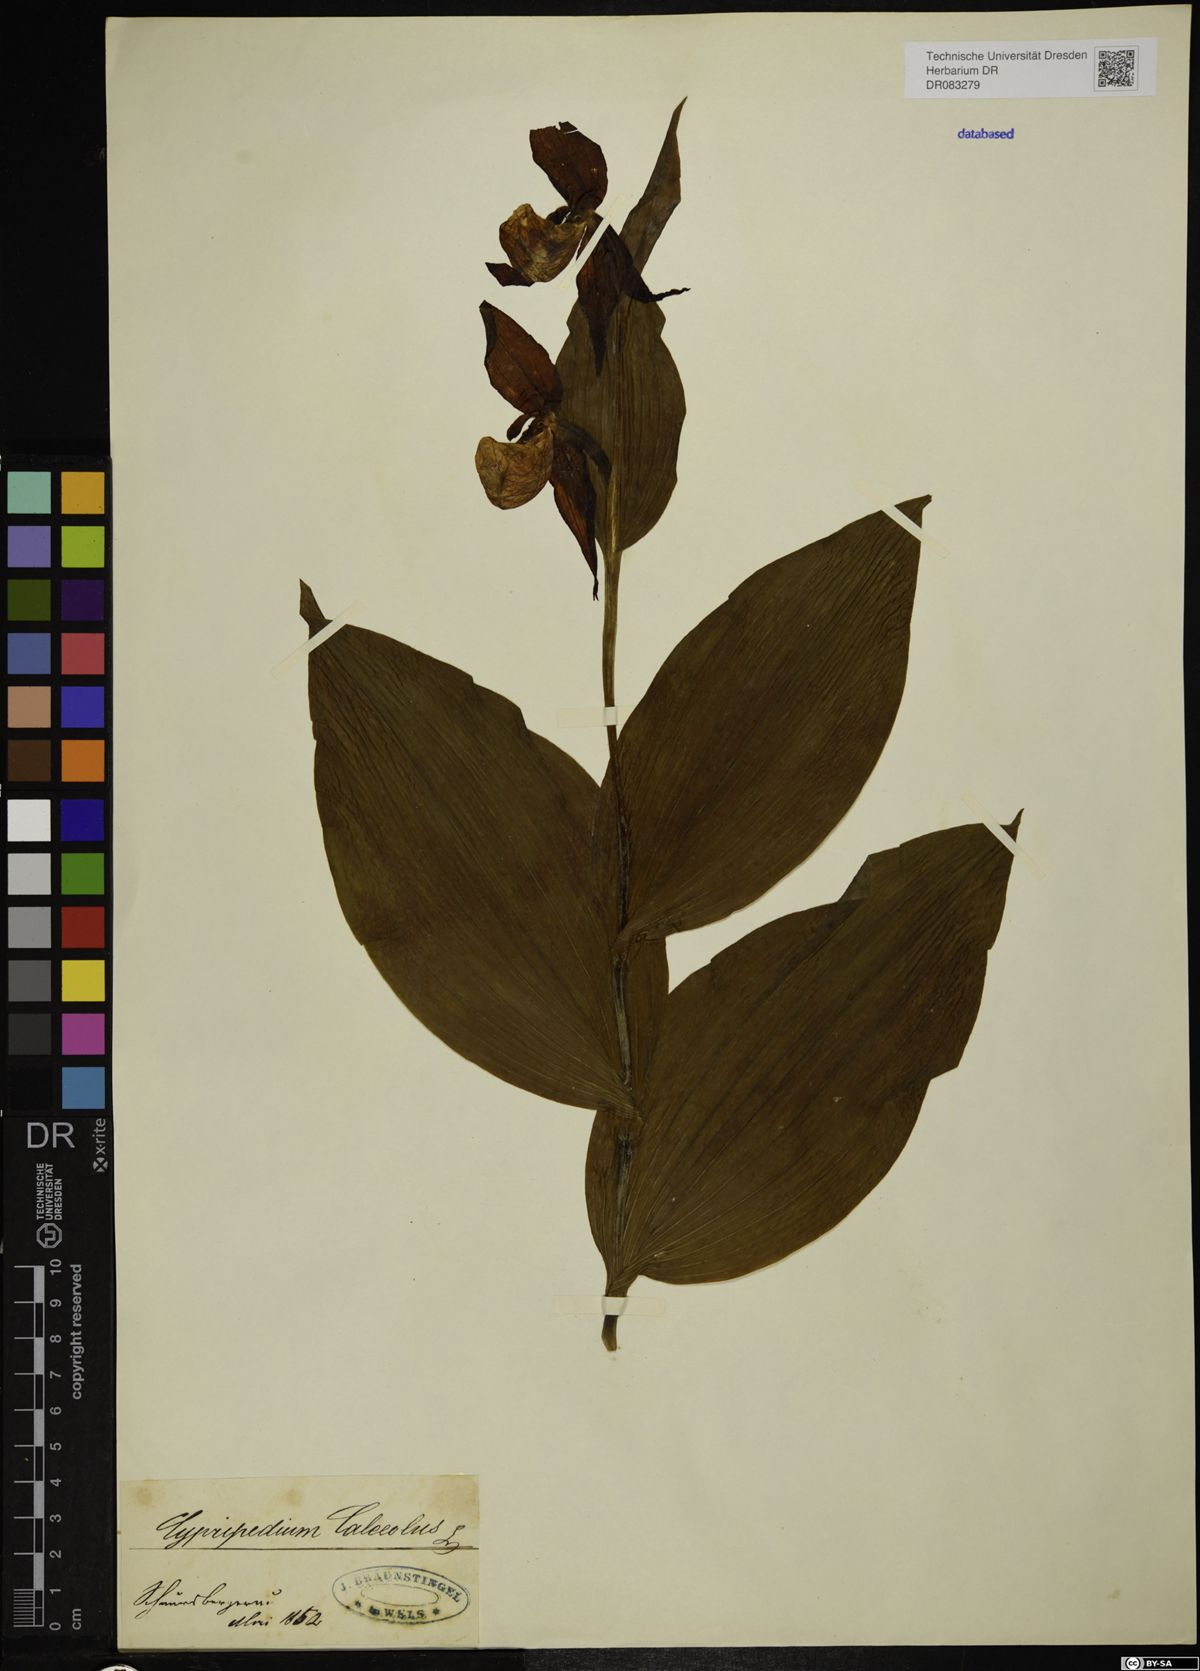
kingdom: Plantae
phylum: Tracheophyta
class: Liliopsida
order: Asparagales
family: Orchidaceae
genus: Cypripedium
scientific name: Cypripedium calceolus
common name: Lady's-slipper
